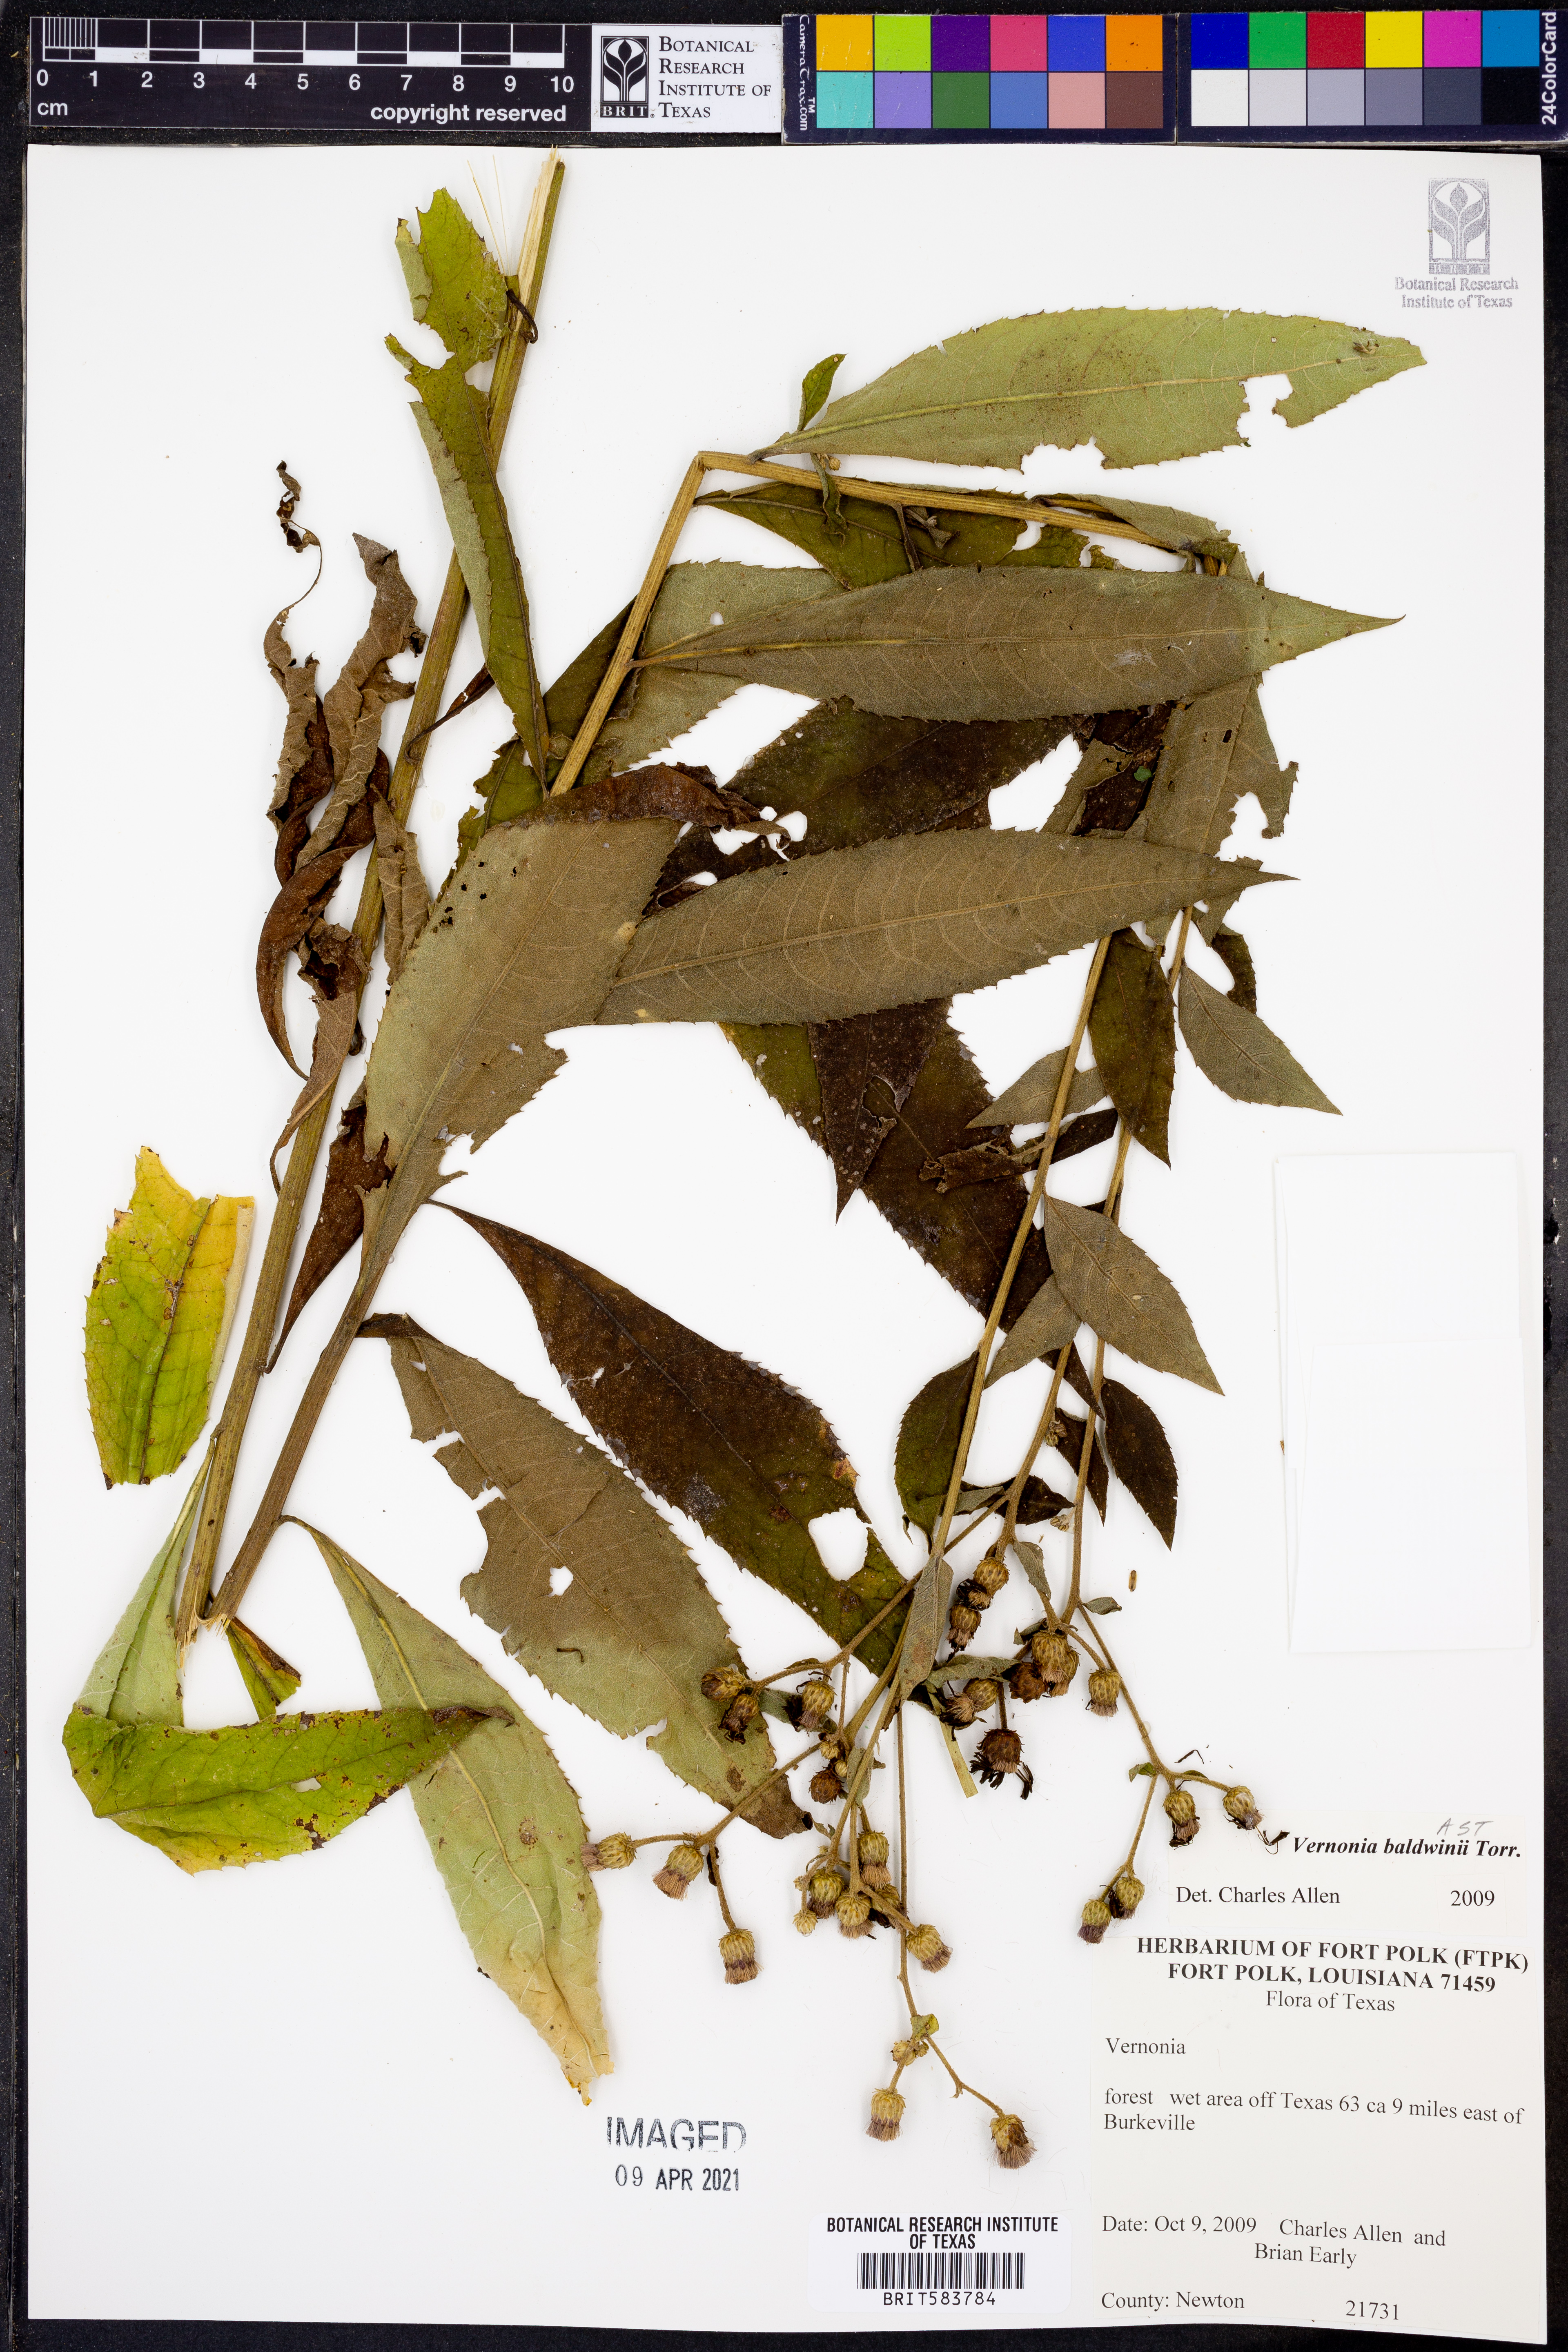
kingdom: Plantae
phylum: Tracheophyta
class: Magnoliopsida
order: Asterales
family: Asteraceae
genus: Vernonia
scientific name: Vernonia baldwinii
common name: Western ironweed
